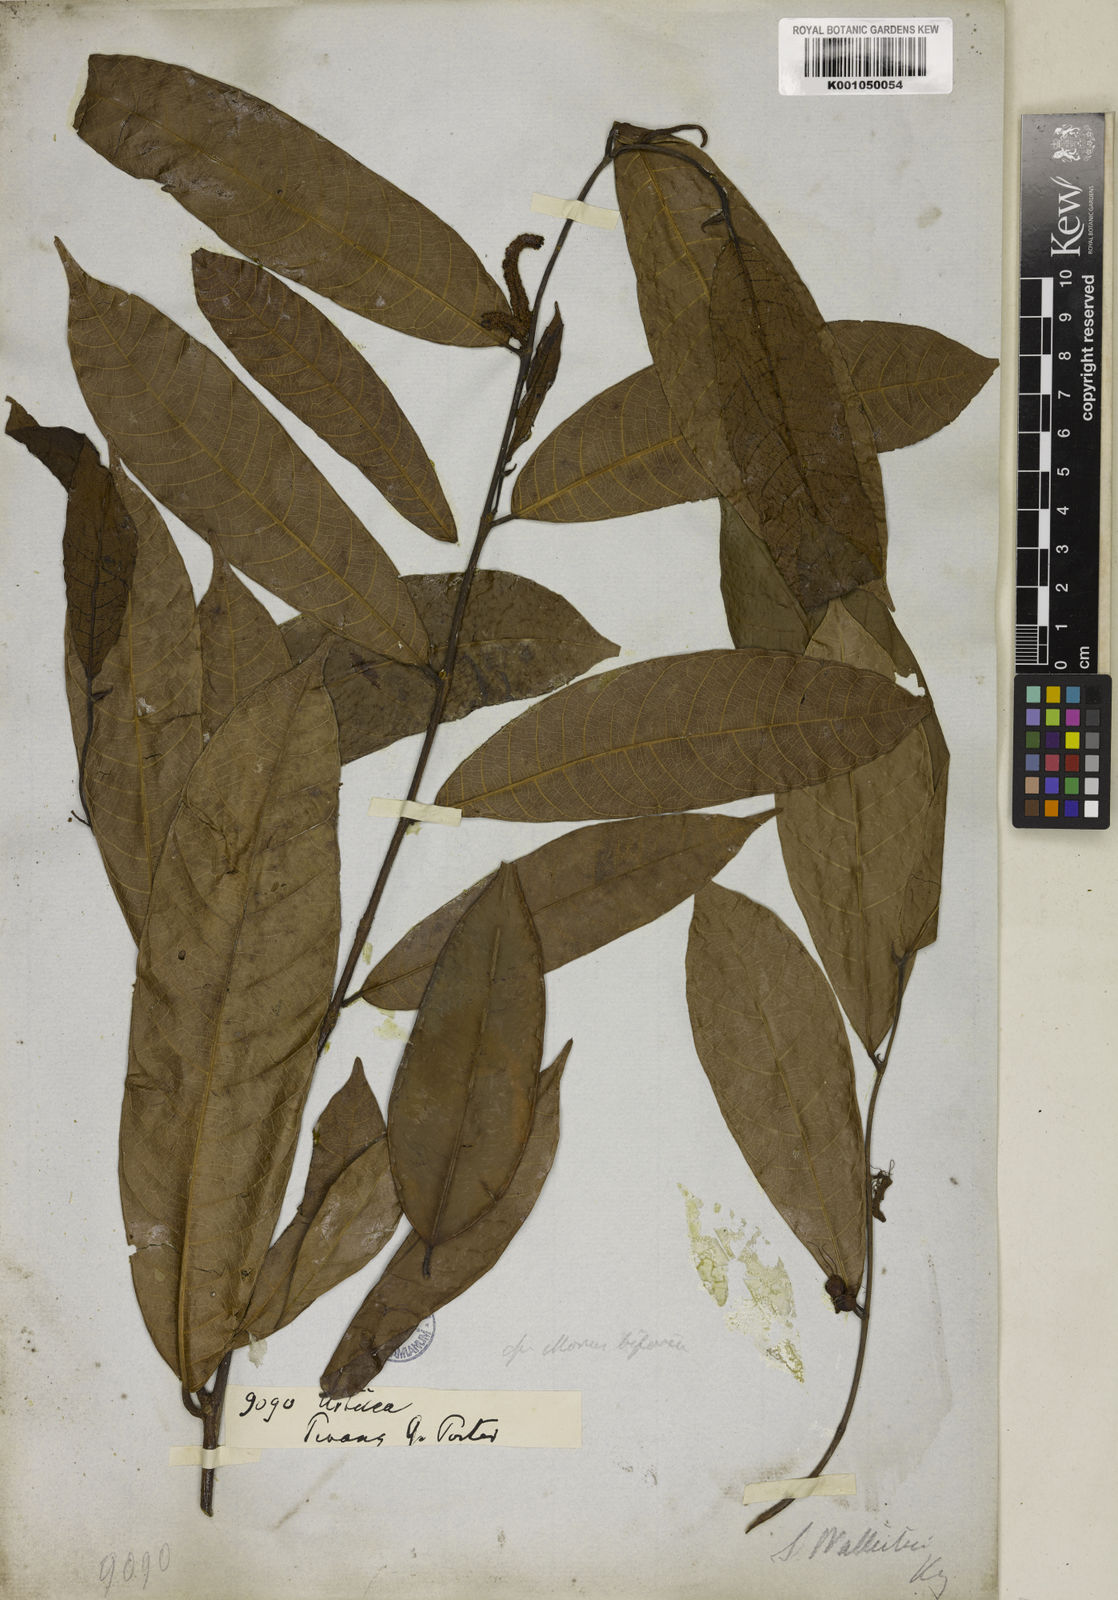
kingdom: Plantae
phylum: Tracheophyta
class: Magnoliopsida
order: Rosales
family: Moraceae
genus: Sloetia
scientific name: Sloetia elongata
